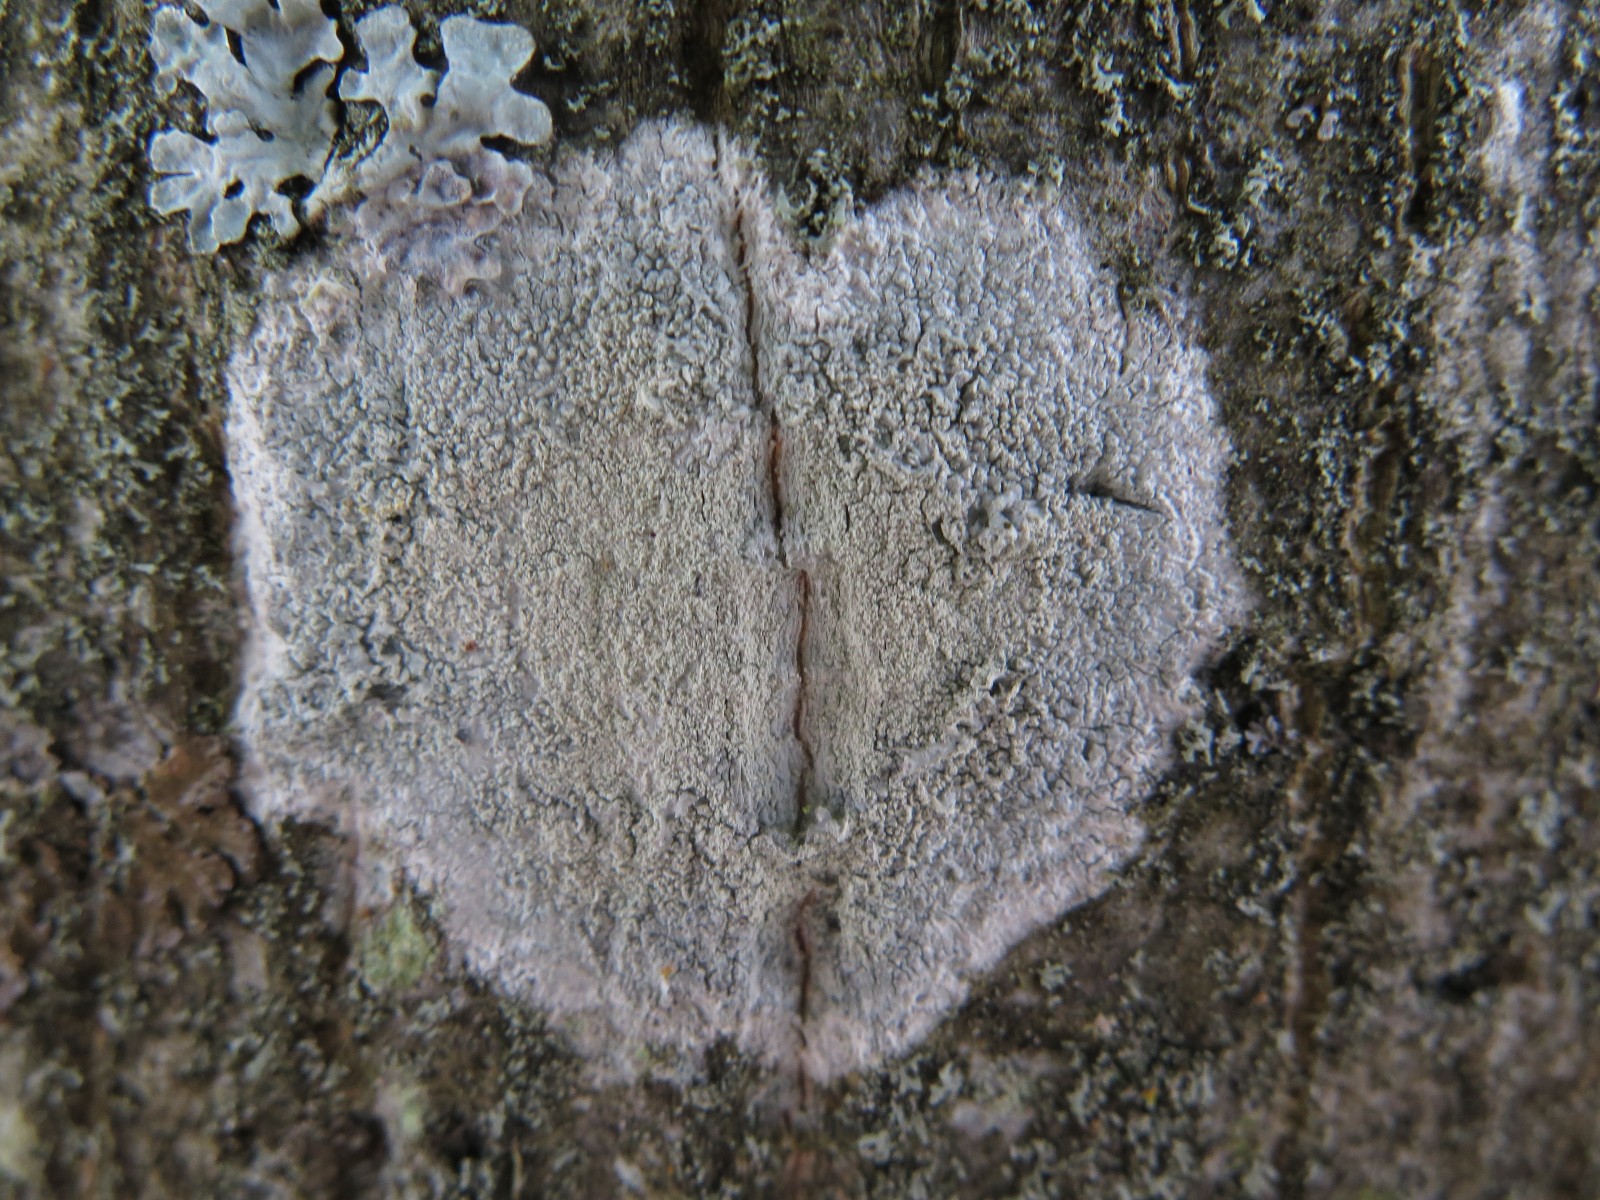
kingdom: Fungi
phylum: Ascomycota
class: Lecanoromycetes
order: Ostropales
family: Phlyctidaceae
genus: Phlyctis
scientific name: Phlyctis argena
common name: almindelig sølvlav
